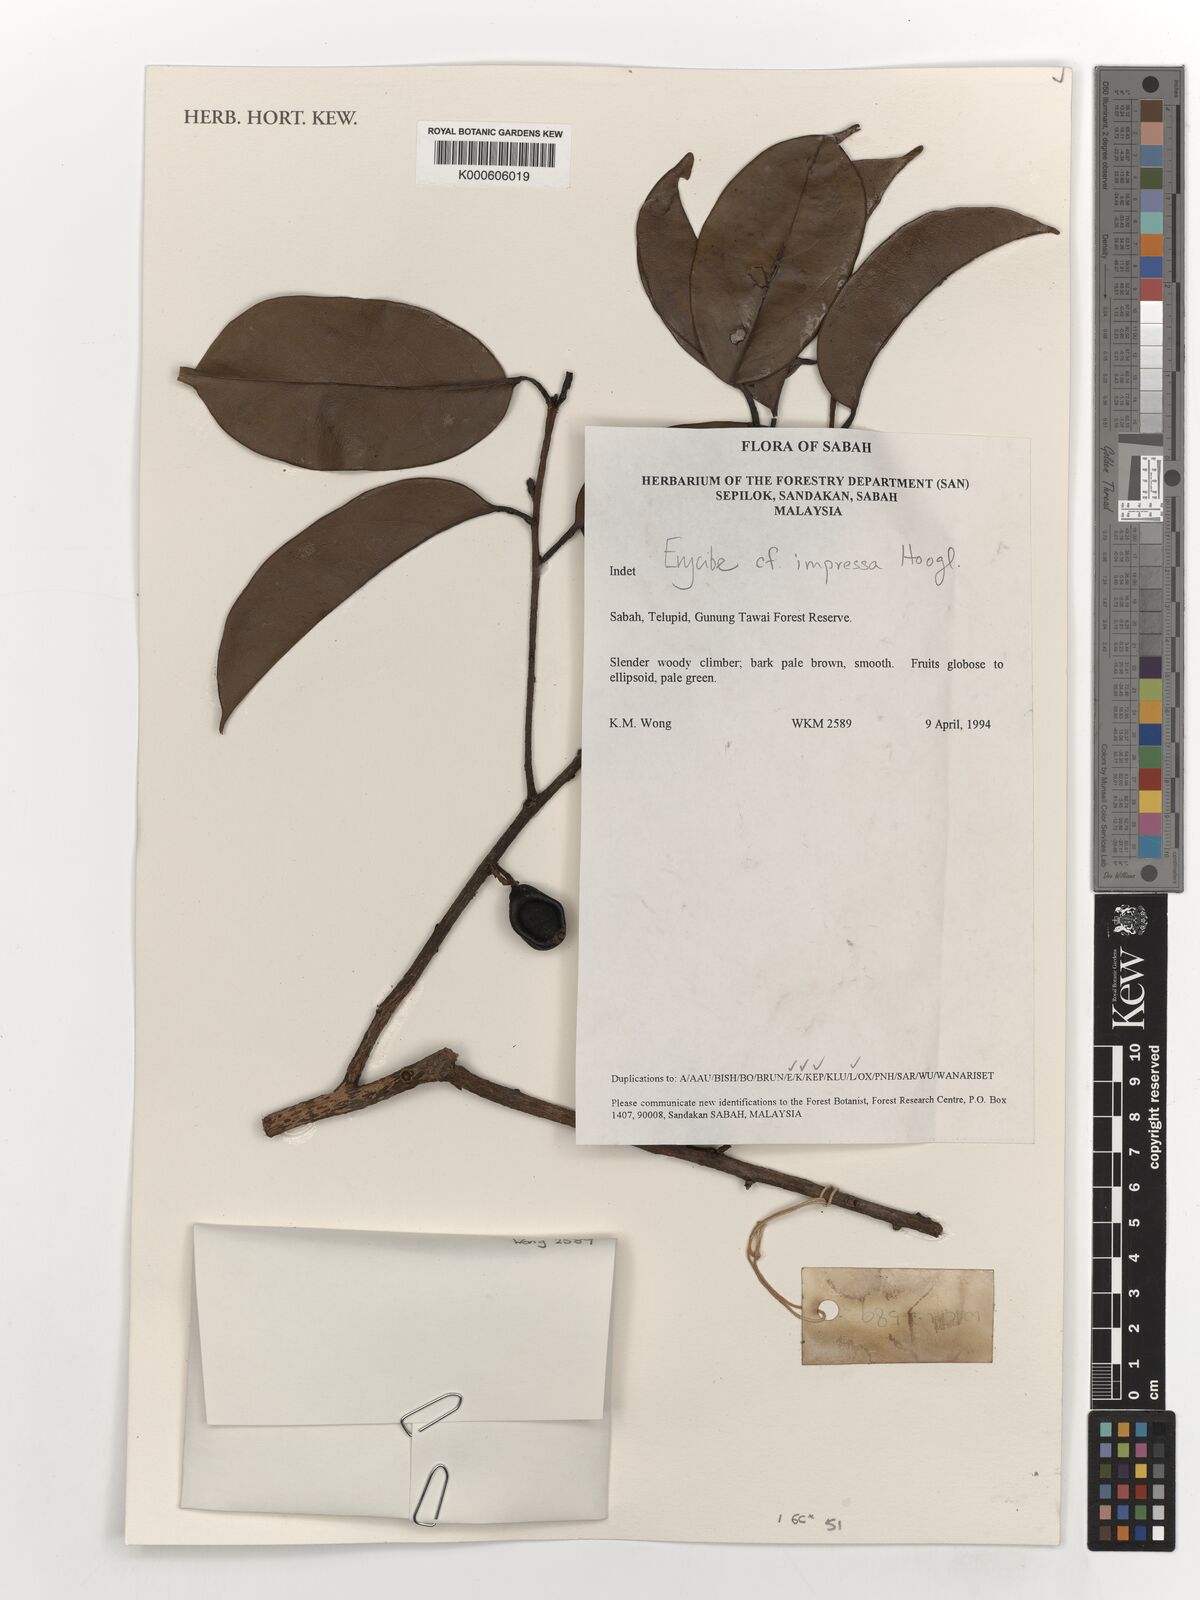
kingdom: Plantae
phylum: Tracheophyta
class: Magnoliopsida
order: Solanales
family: Convolvulaceae
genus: Erycibe
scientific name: Erycibe impressa
